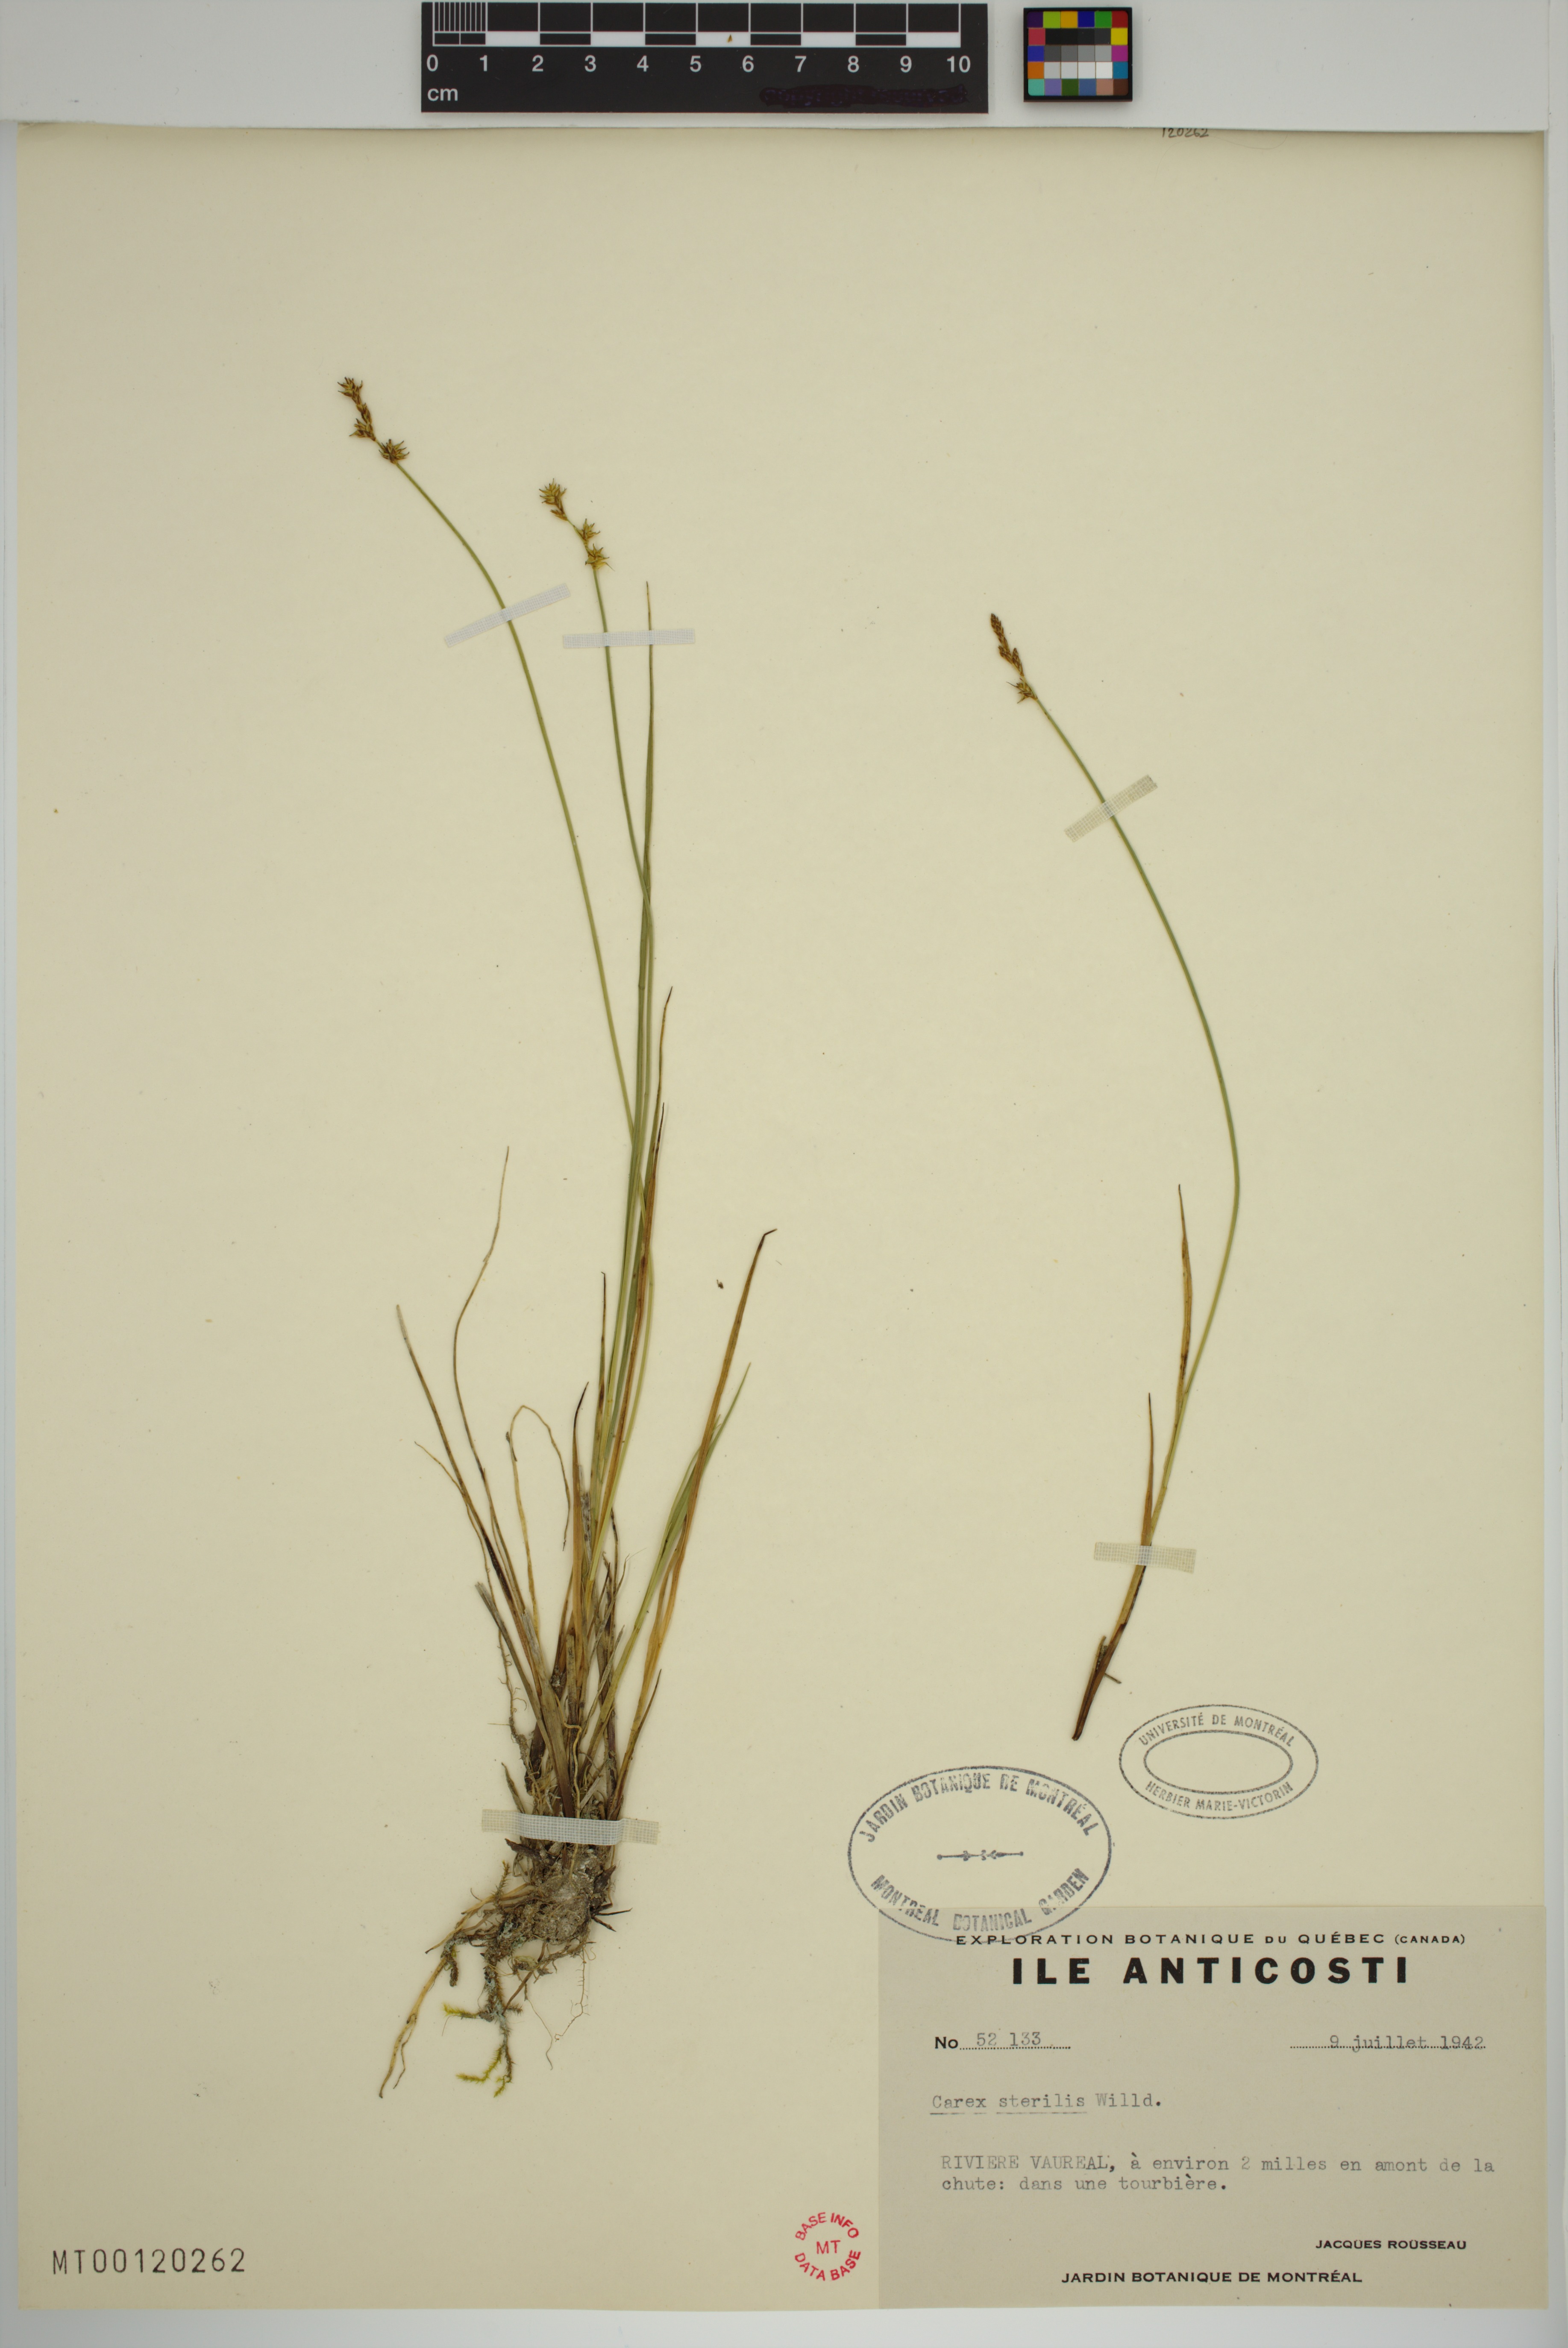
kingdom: Plantae
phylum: Tracheophyta
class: Liliopsida
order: Poales
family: Cyperaceae
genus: Carex
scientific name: Carex sterilis
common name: Dioecious sedge
